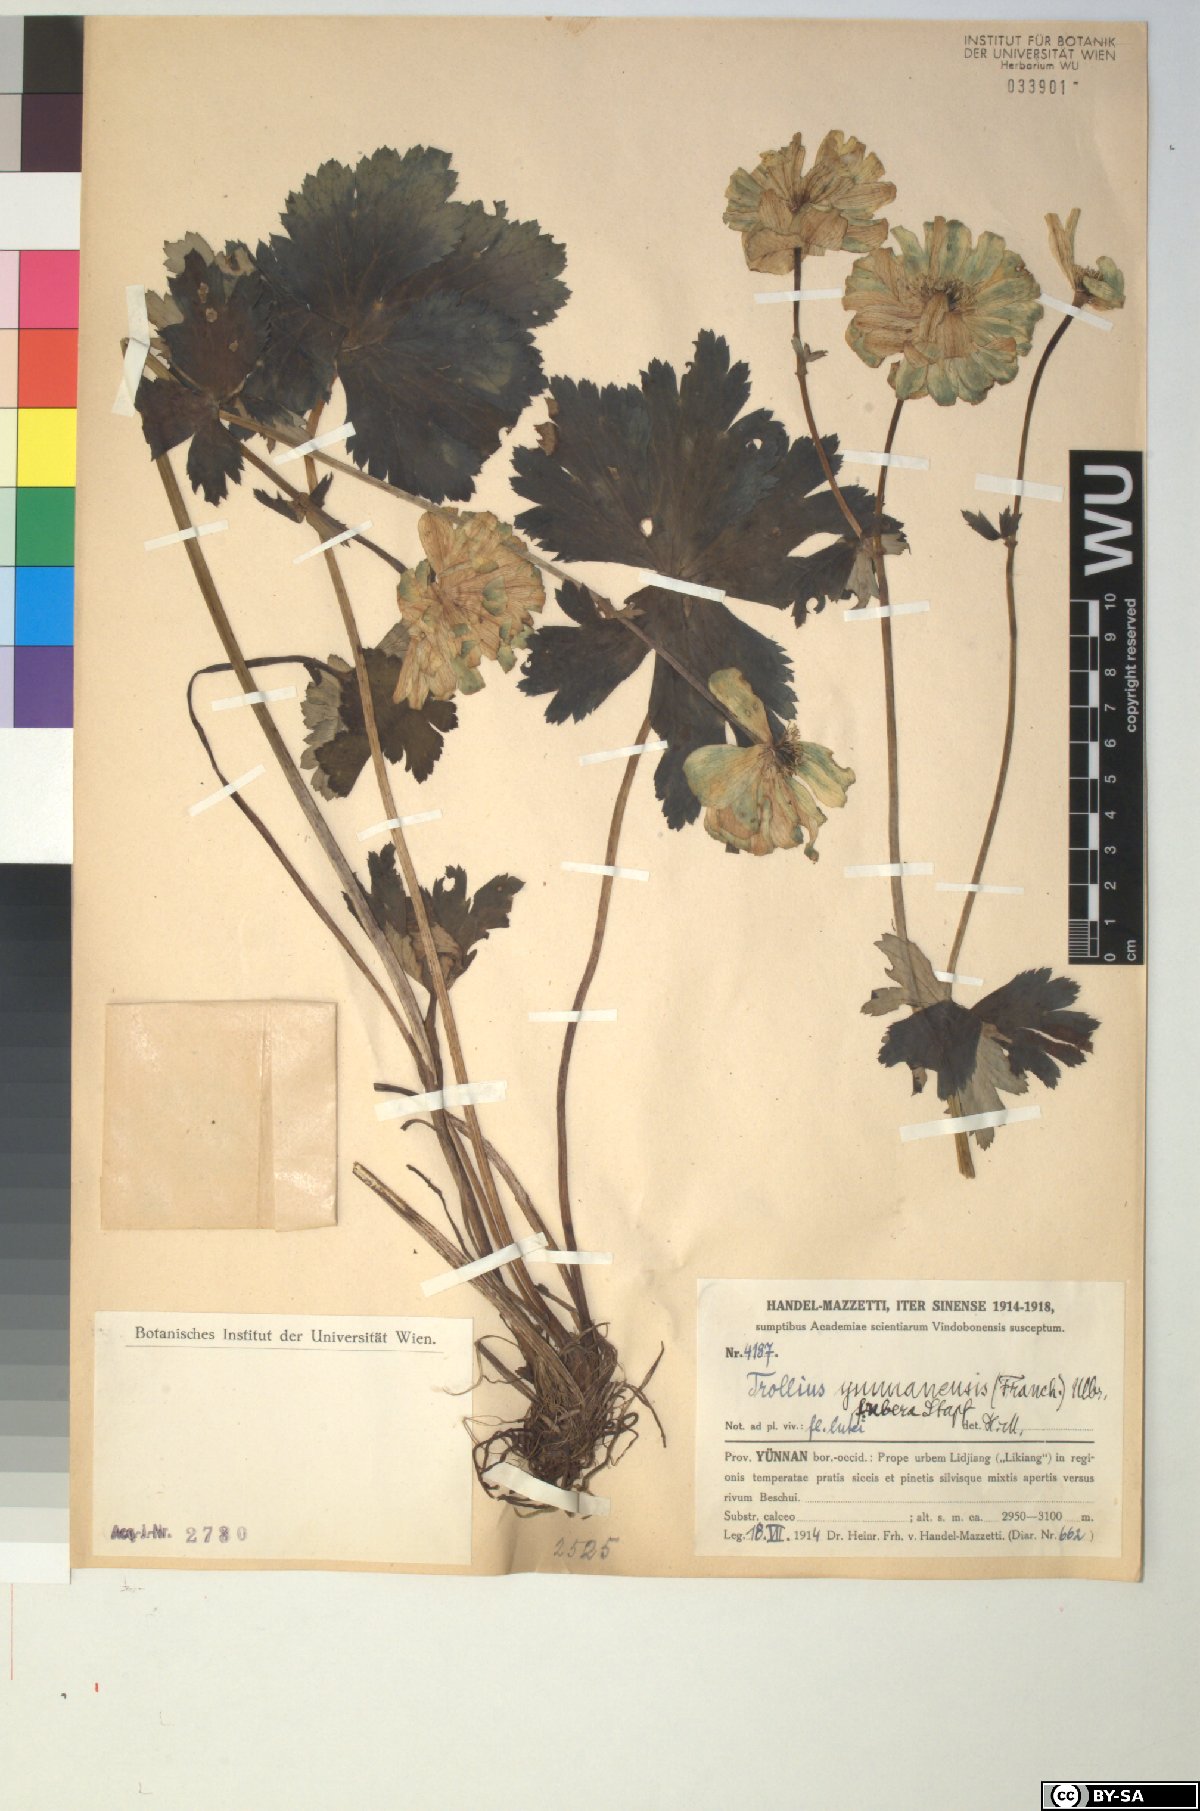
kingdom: Plantae
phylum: Tracheophyta
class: Magnoliopsida
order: Ranunculales
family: Ranunculaceae
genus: Trollius
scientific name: Trollius yunnanensis
